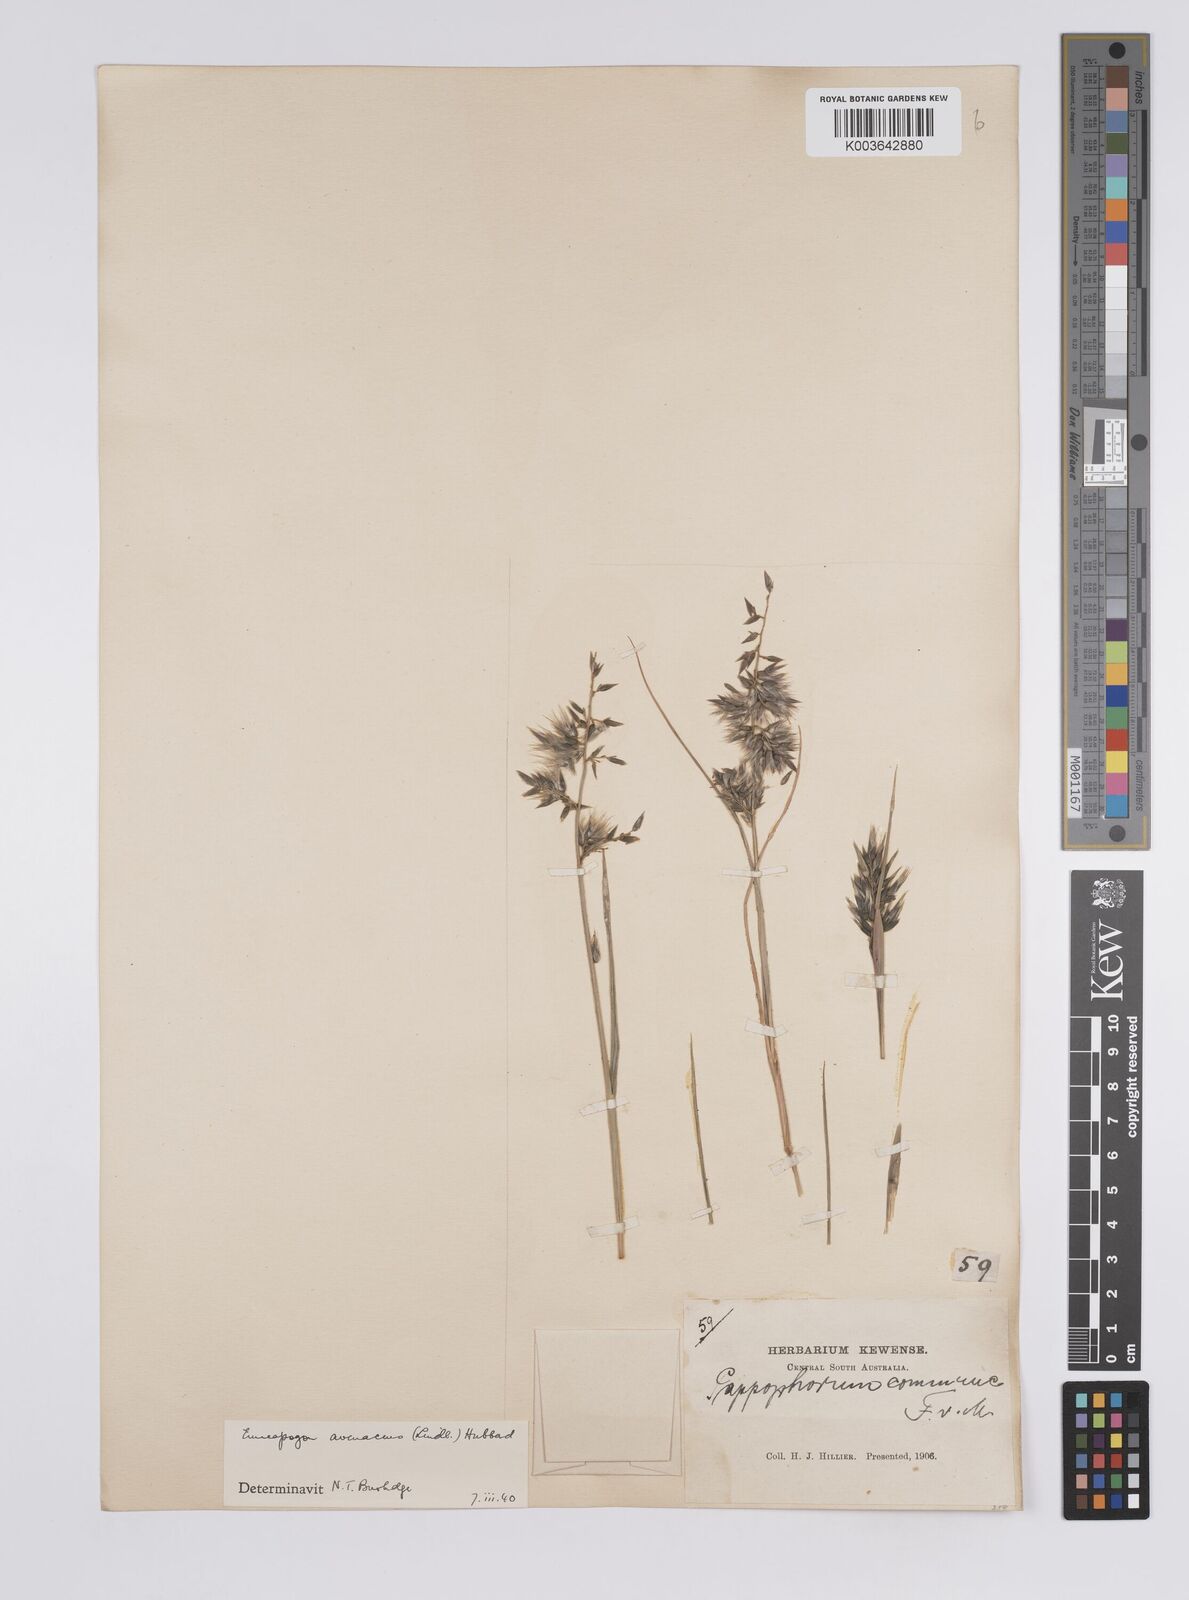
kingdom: Plantae
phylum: Tracheophyta
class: Liliopsida
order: Poales
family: Poaceae
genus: Enneapogon
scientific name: Enneapogon avenaceus
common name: Hairy oat grass
